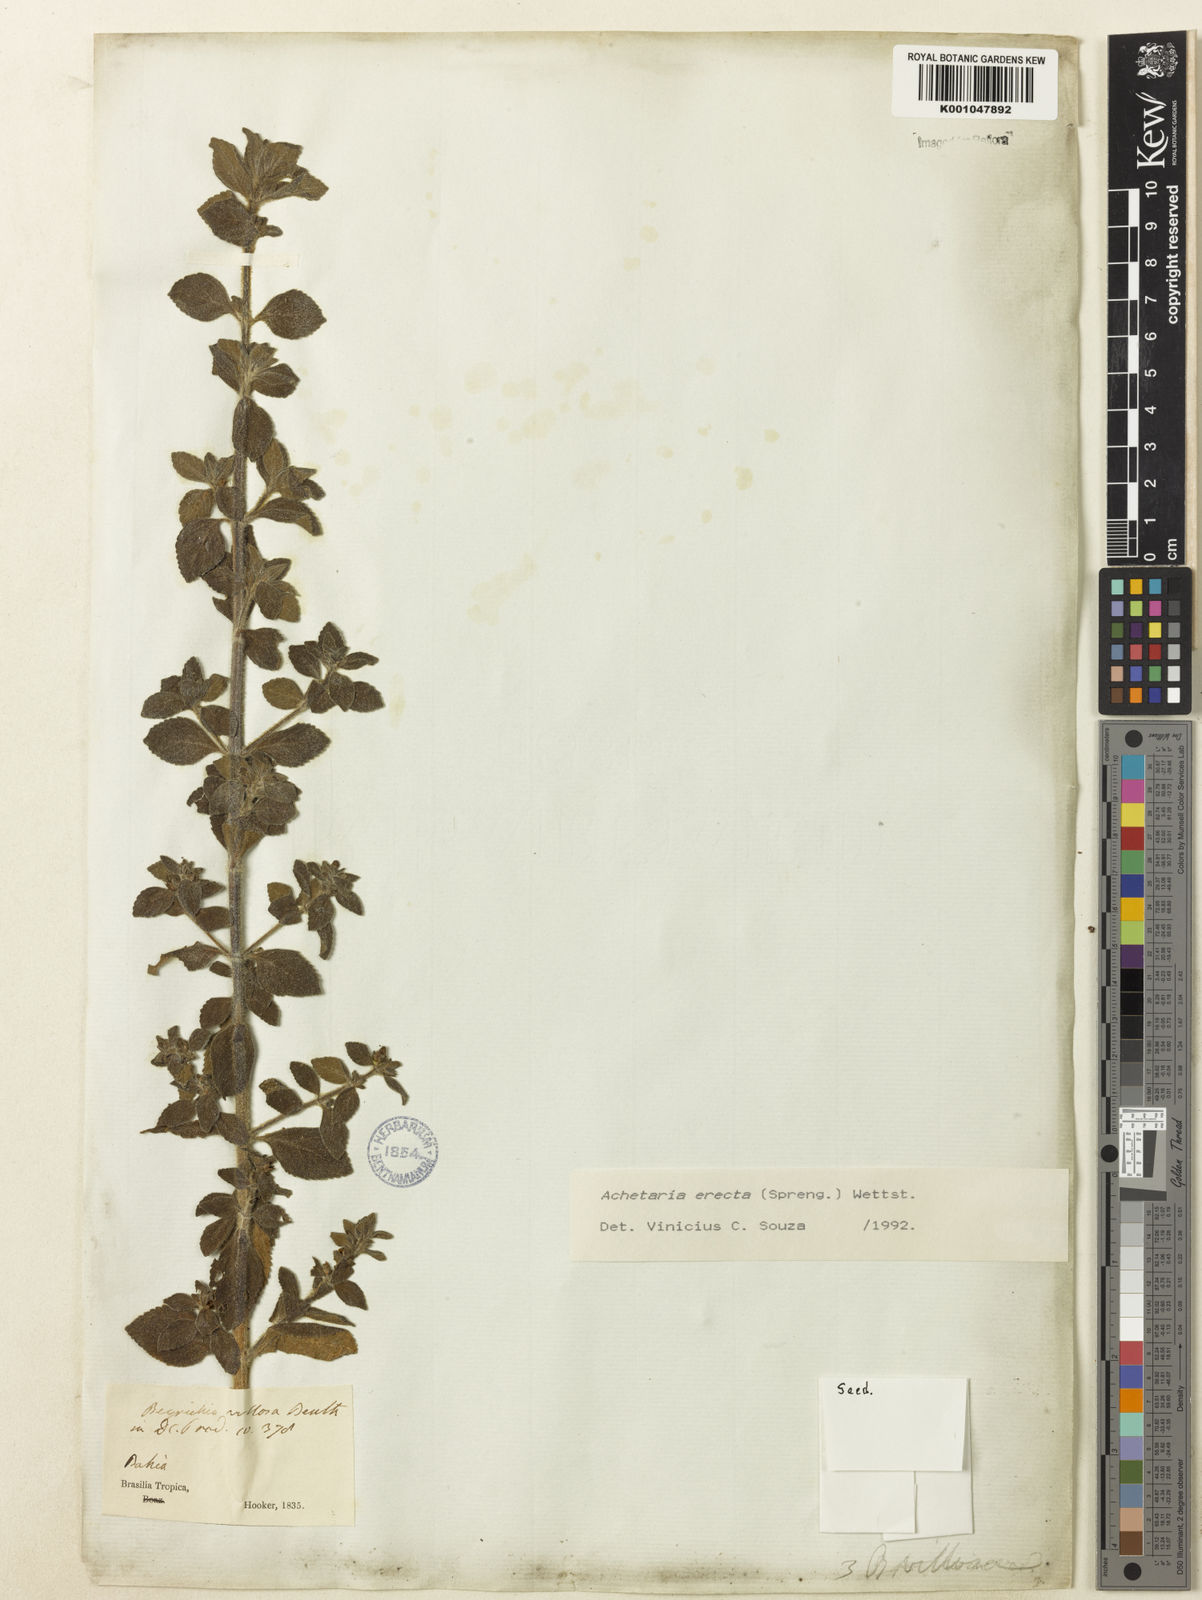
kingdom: Plantae
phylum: Tracheophyta
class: Magnoliopsida
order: Lamiales
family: Plantaginaceae
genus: Matourea
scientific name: Matourea erecta
